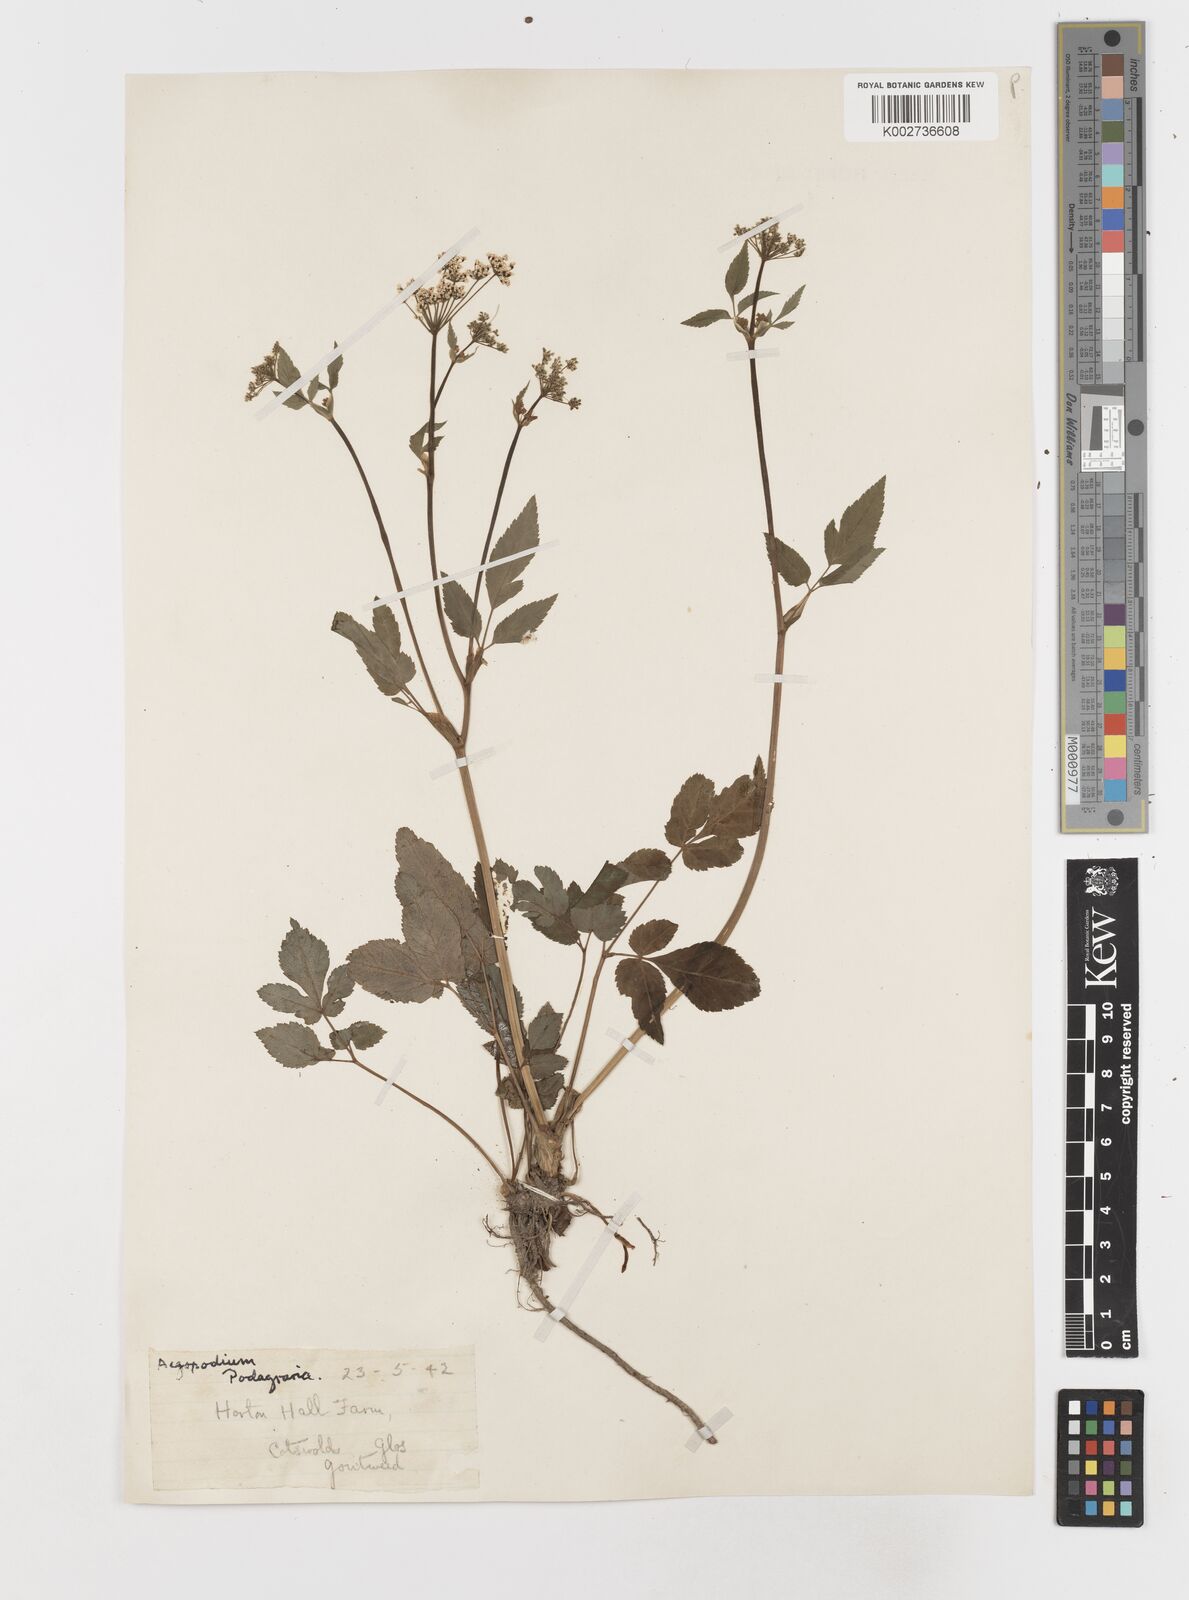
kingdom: Plantae
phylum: Tracheophyta
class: Magnoliopsida
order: Apiales
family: Apiaceae
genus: Aegopodium
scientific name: Aegopodium podagraria
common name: Ground-elder
